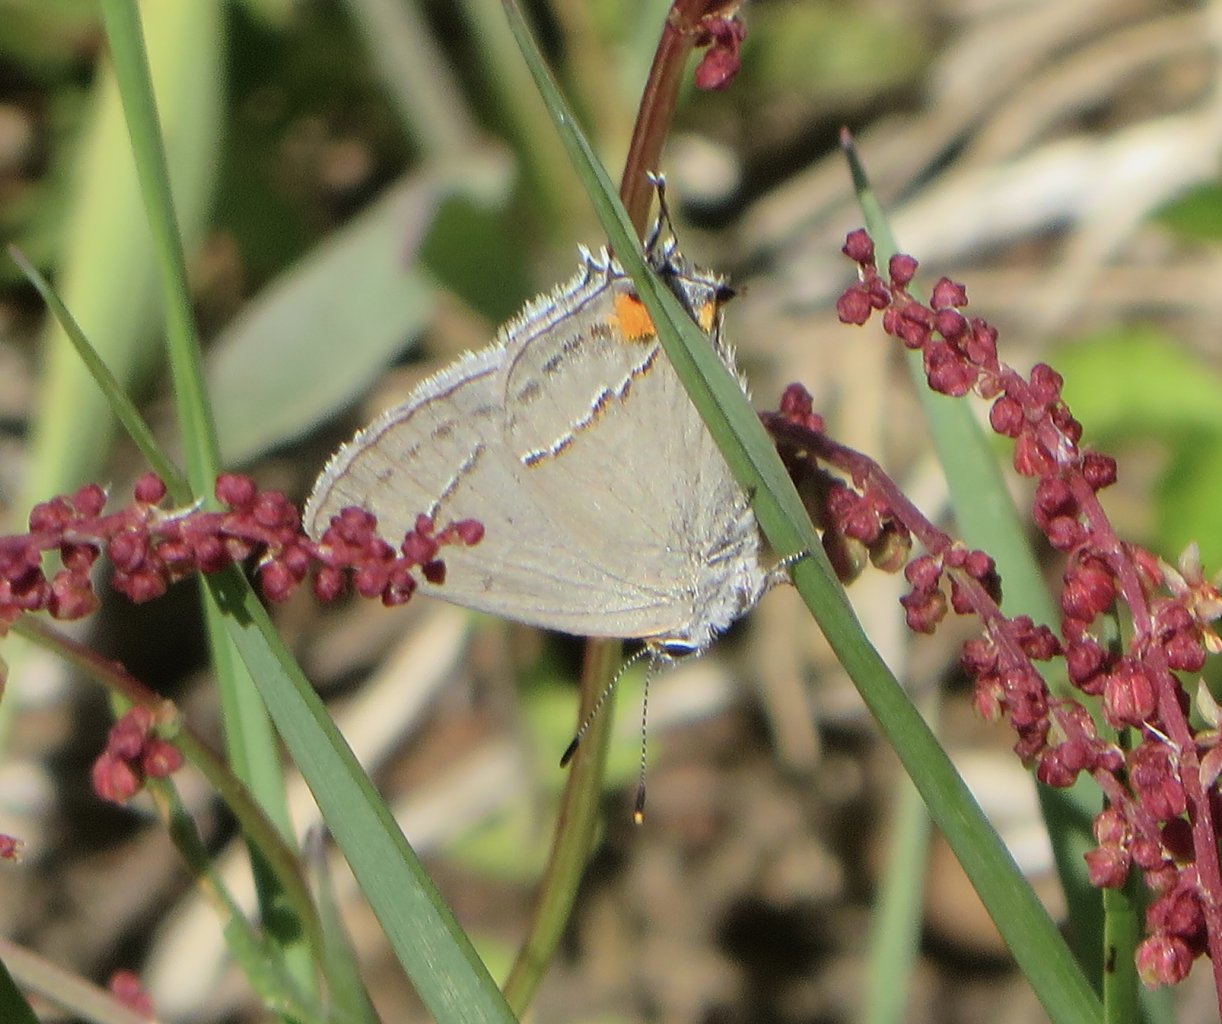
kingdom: Animalia
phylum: Arthropoda
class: Insecta
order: Lepidoptera
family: Lycaenidae
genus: Strymon
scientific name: Strymon melinus
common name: Gray Hairstreak
